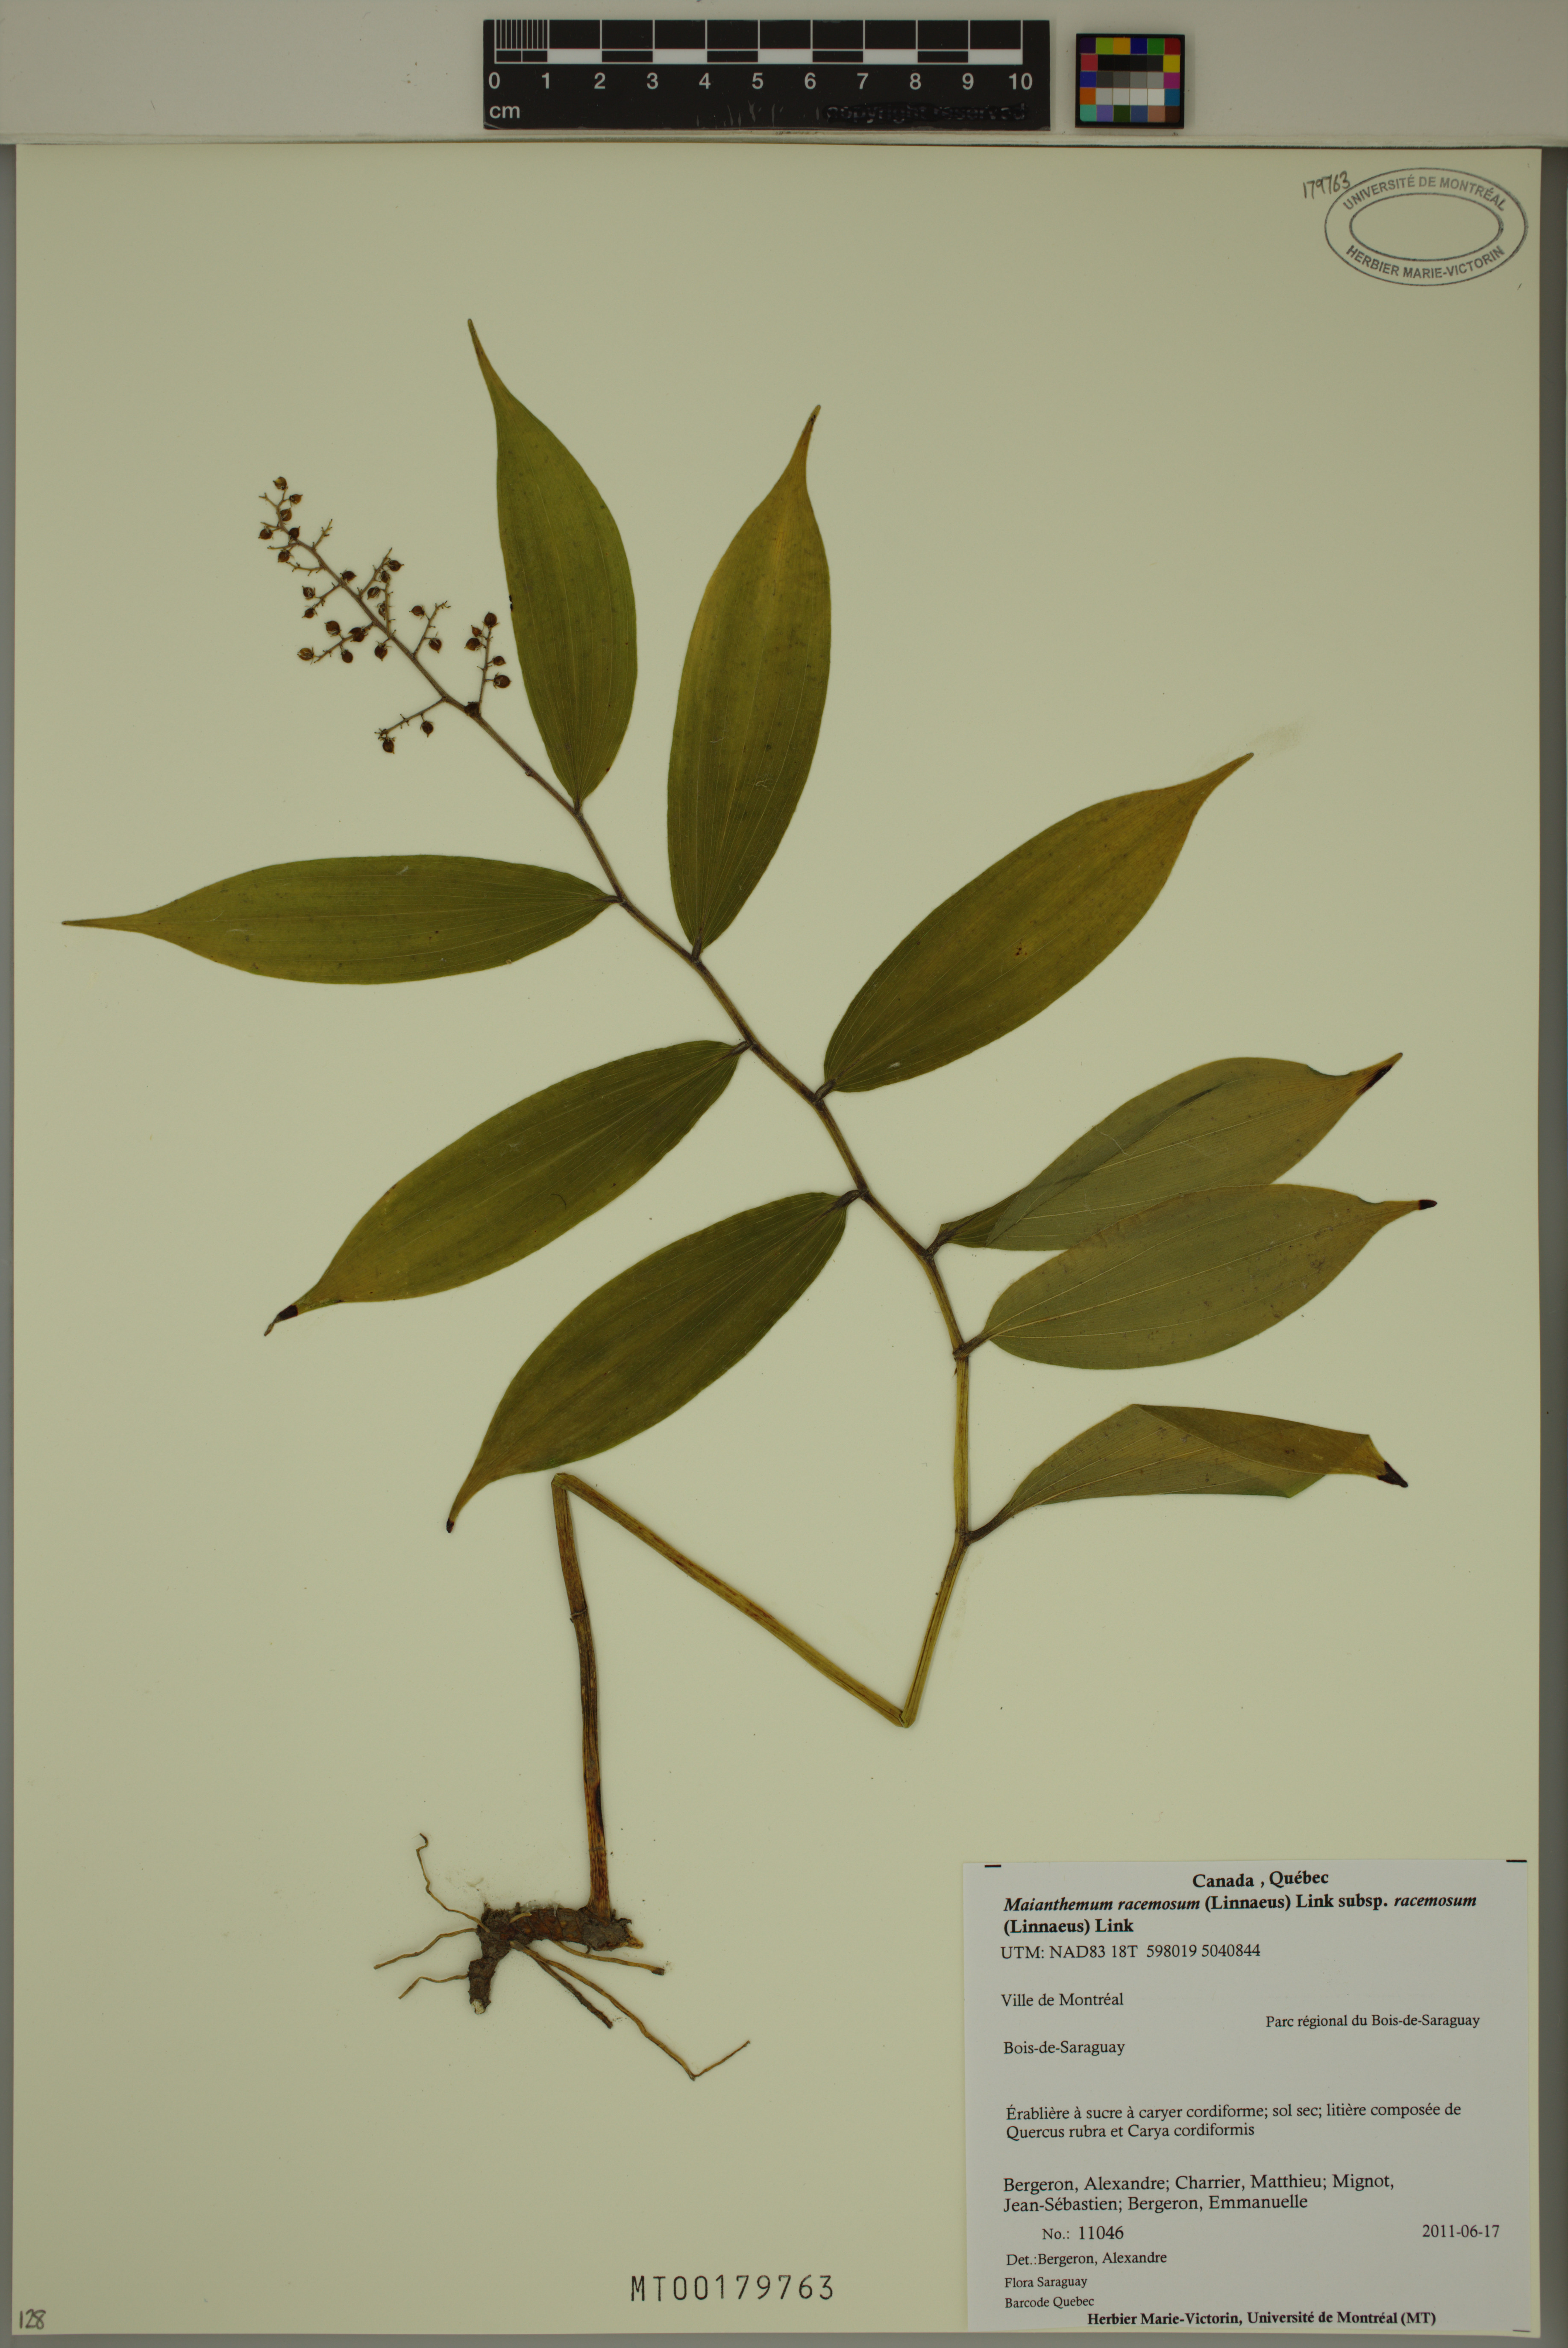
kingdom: Plantae
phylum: Tracheophyta
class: Liliopsida
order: Asparagales
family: Asparagaceae
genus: Maianthemum
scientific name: Maianthemum racemosum
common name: False spikenard
